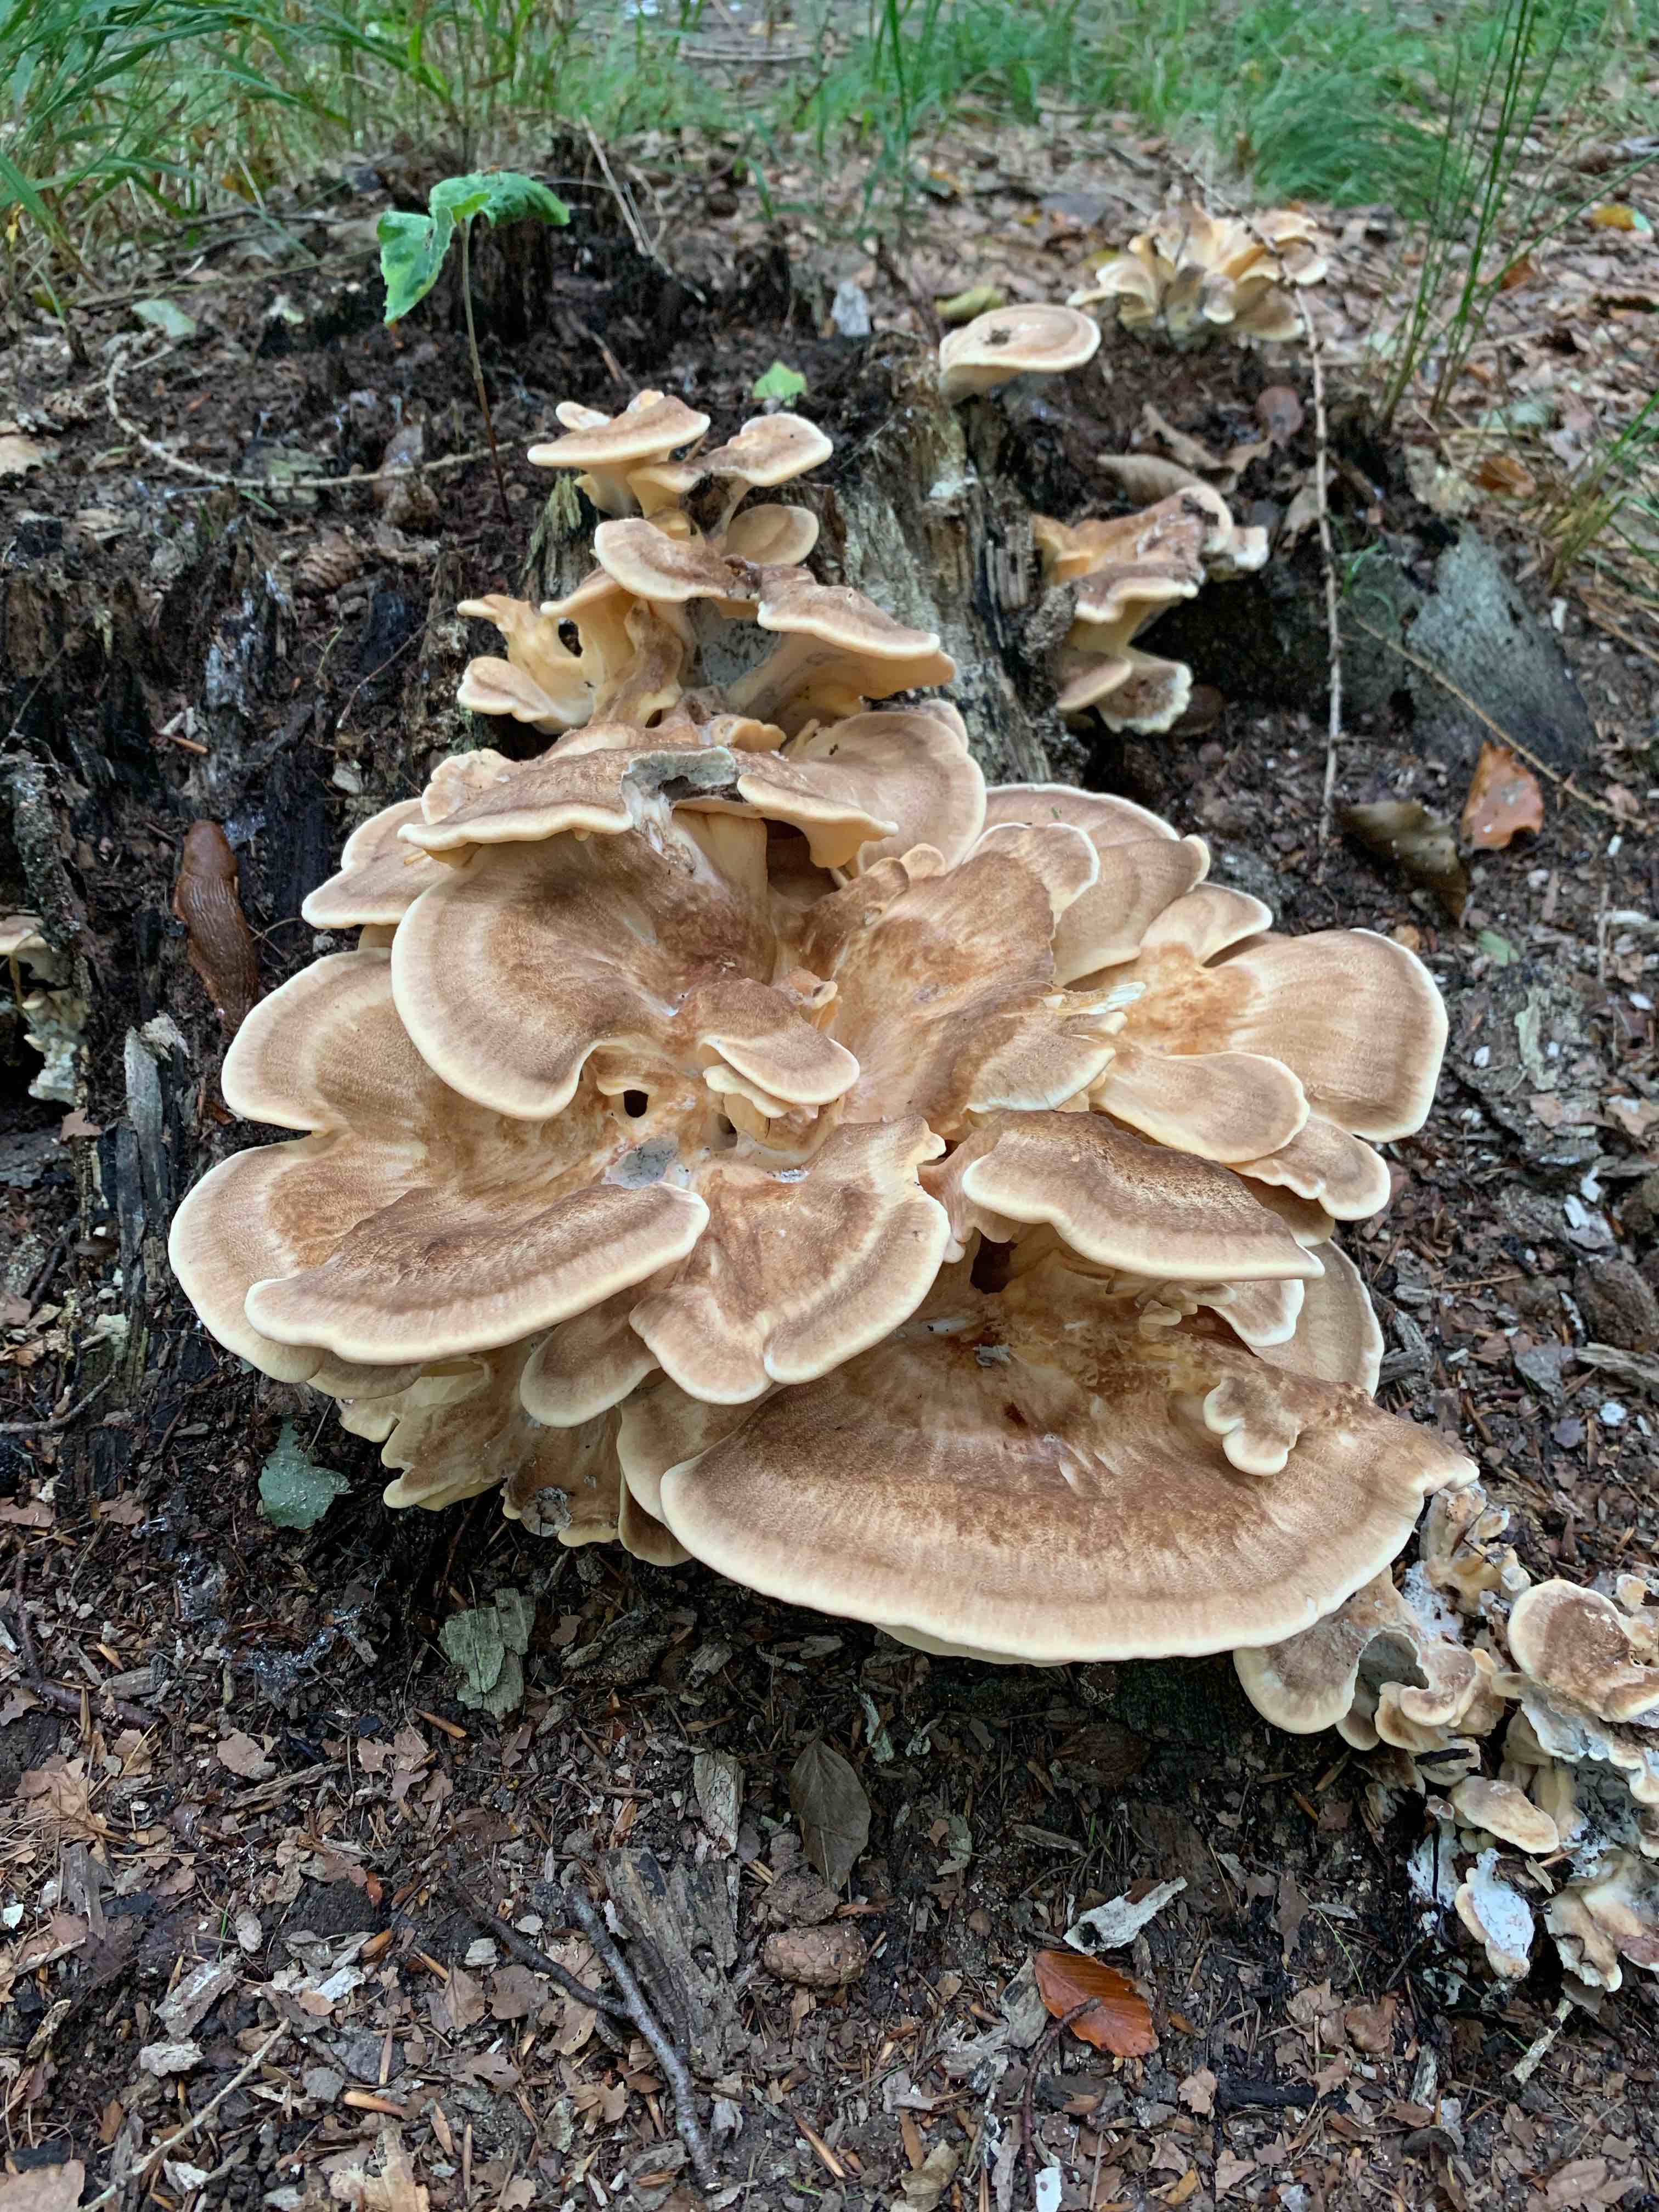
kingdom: Fungi
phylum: Basidiomycota
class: Agaricomycetes
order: Polyporales
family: Meripilaceae
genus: Meripilus
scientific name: Meripilus giganteus
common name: kæmpeporesvamp
